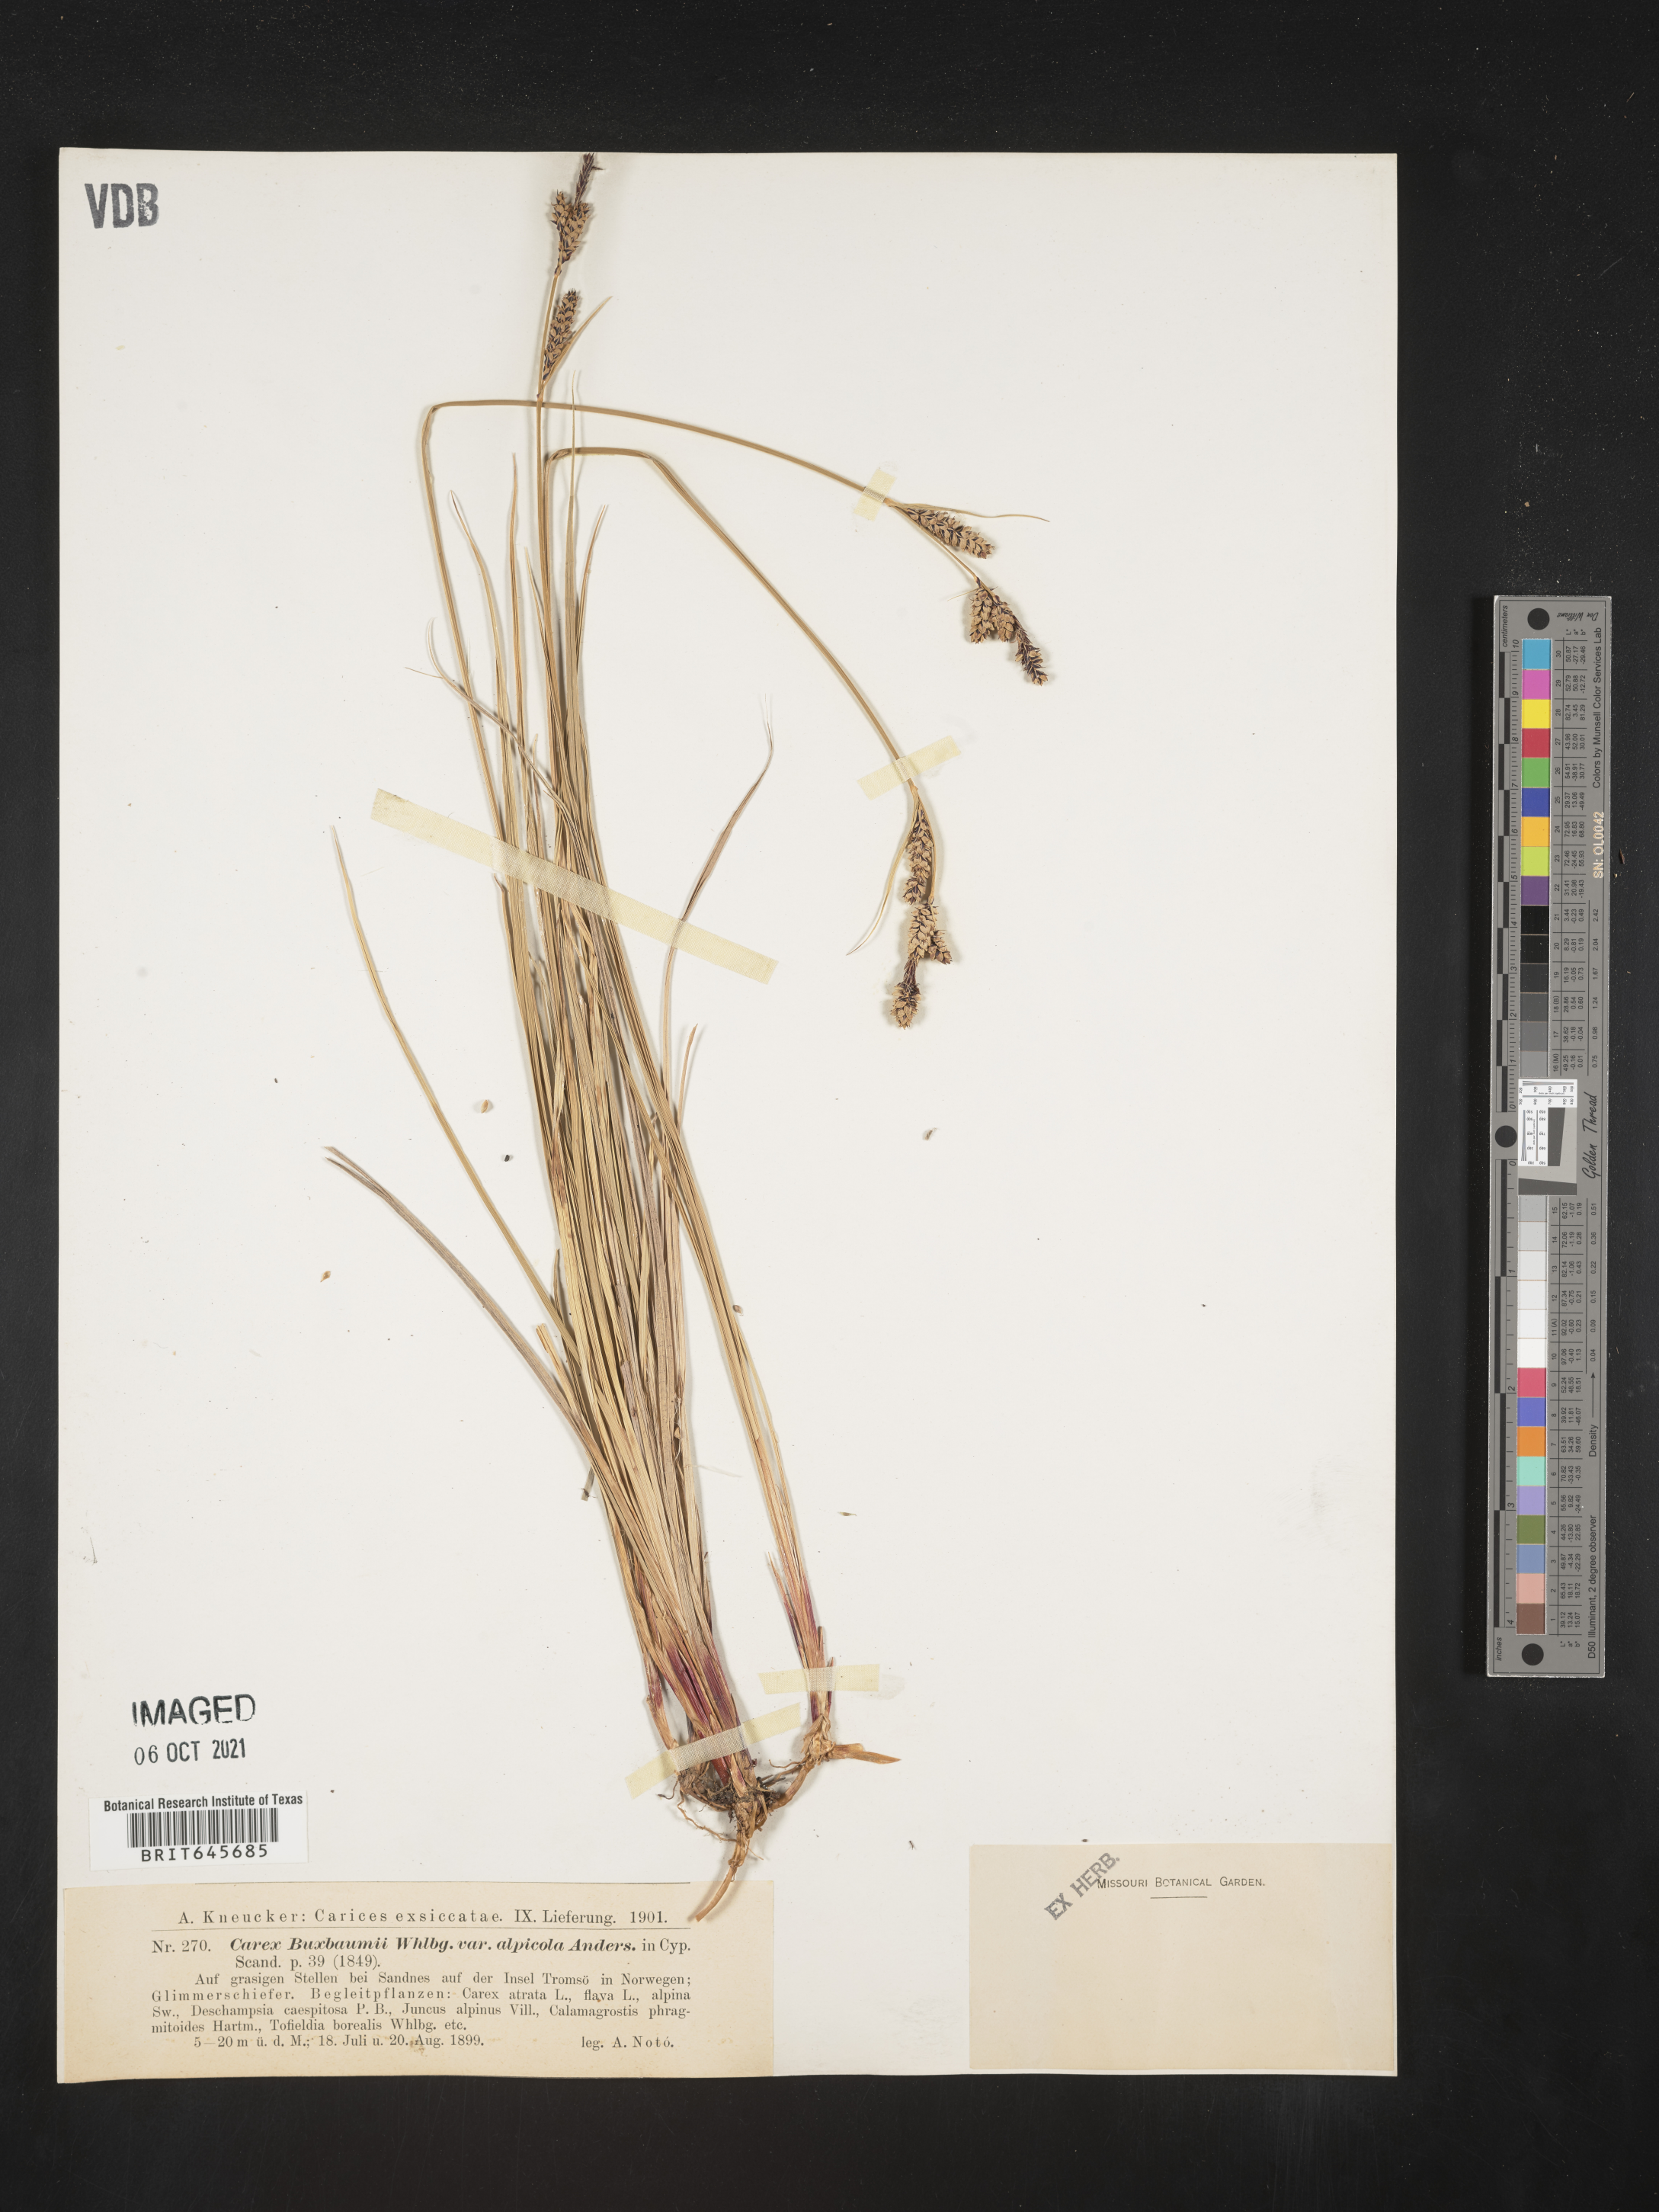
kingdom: Plantae
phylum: Tracheophyta
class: Liliopsida
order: Poales
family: Cyperaceae
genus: Carex
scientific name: Carex
